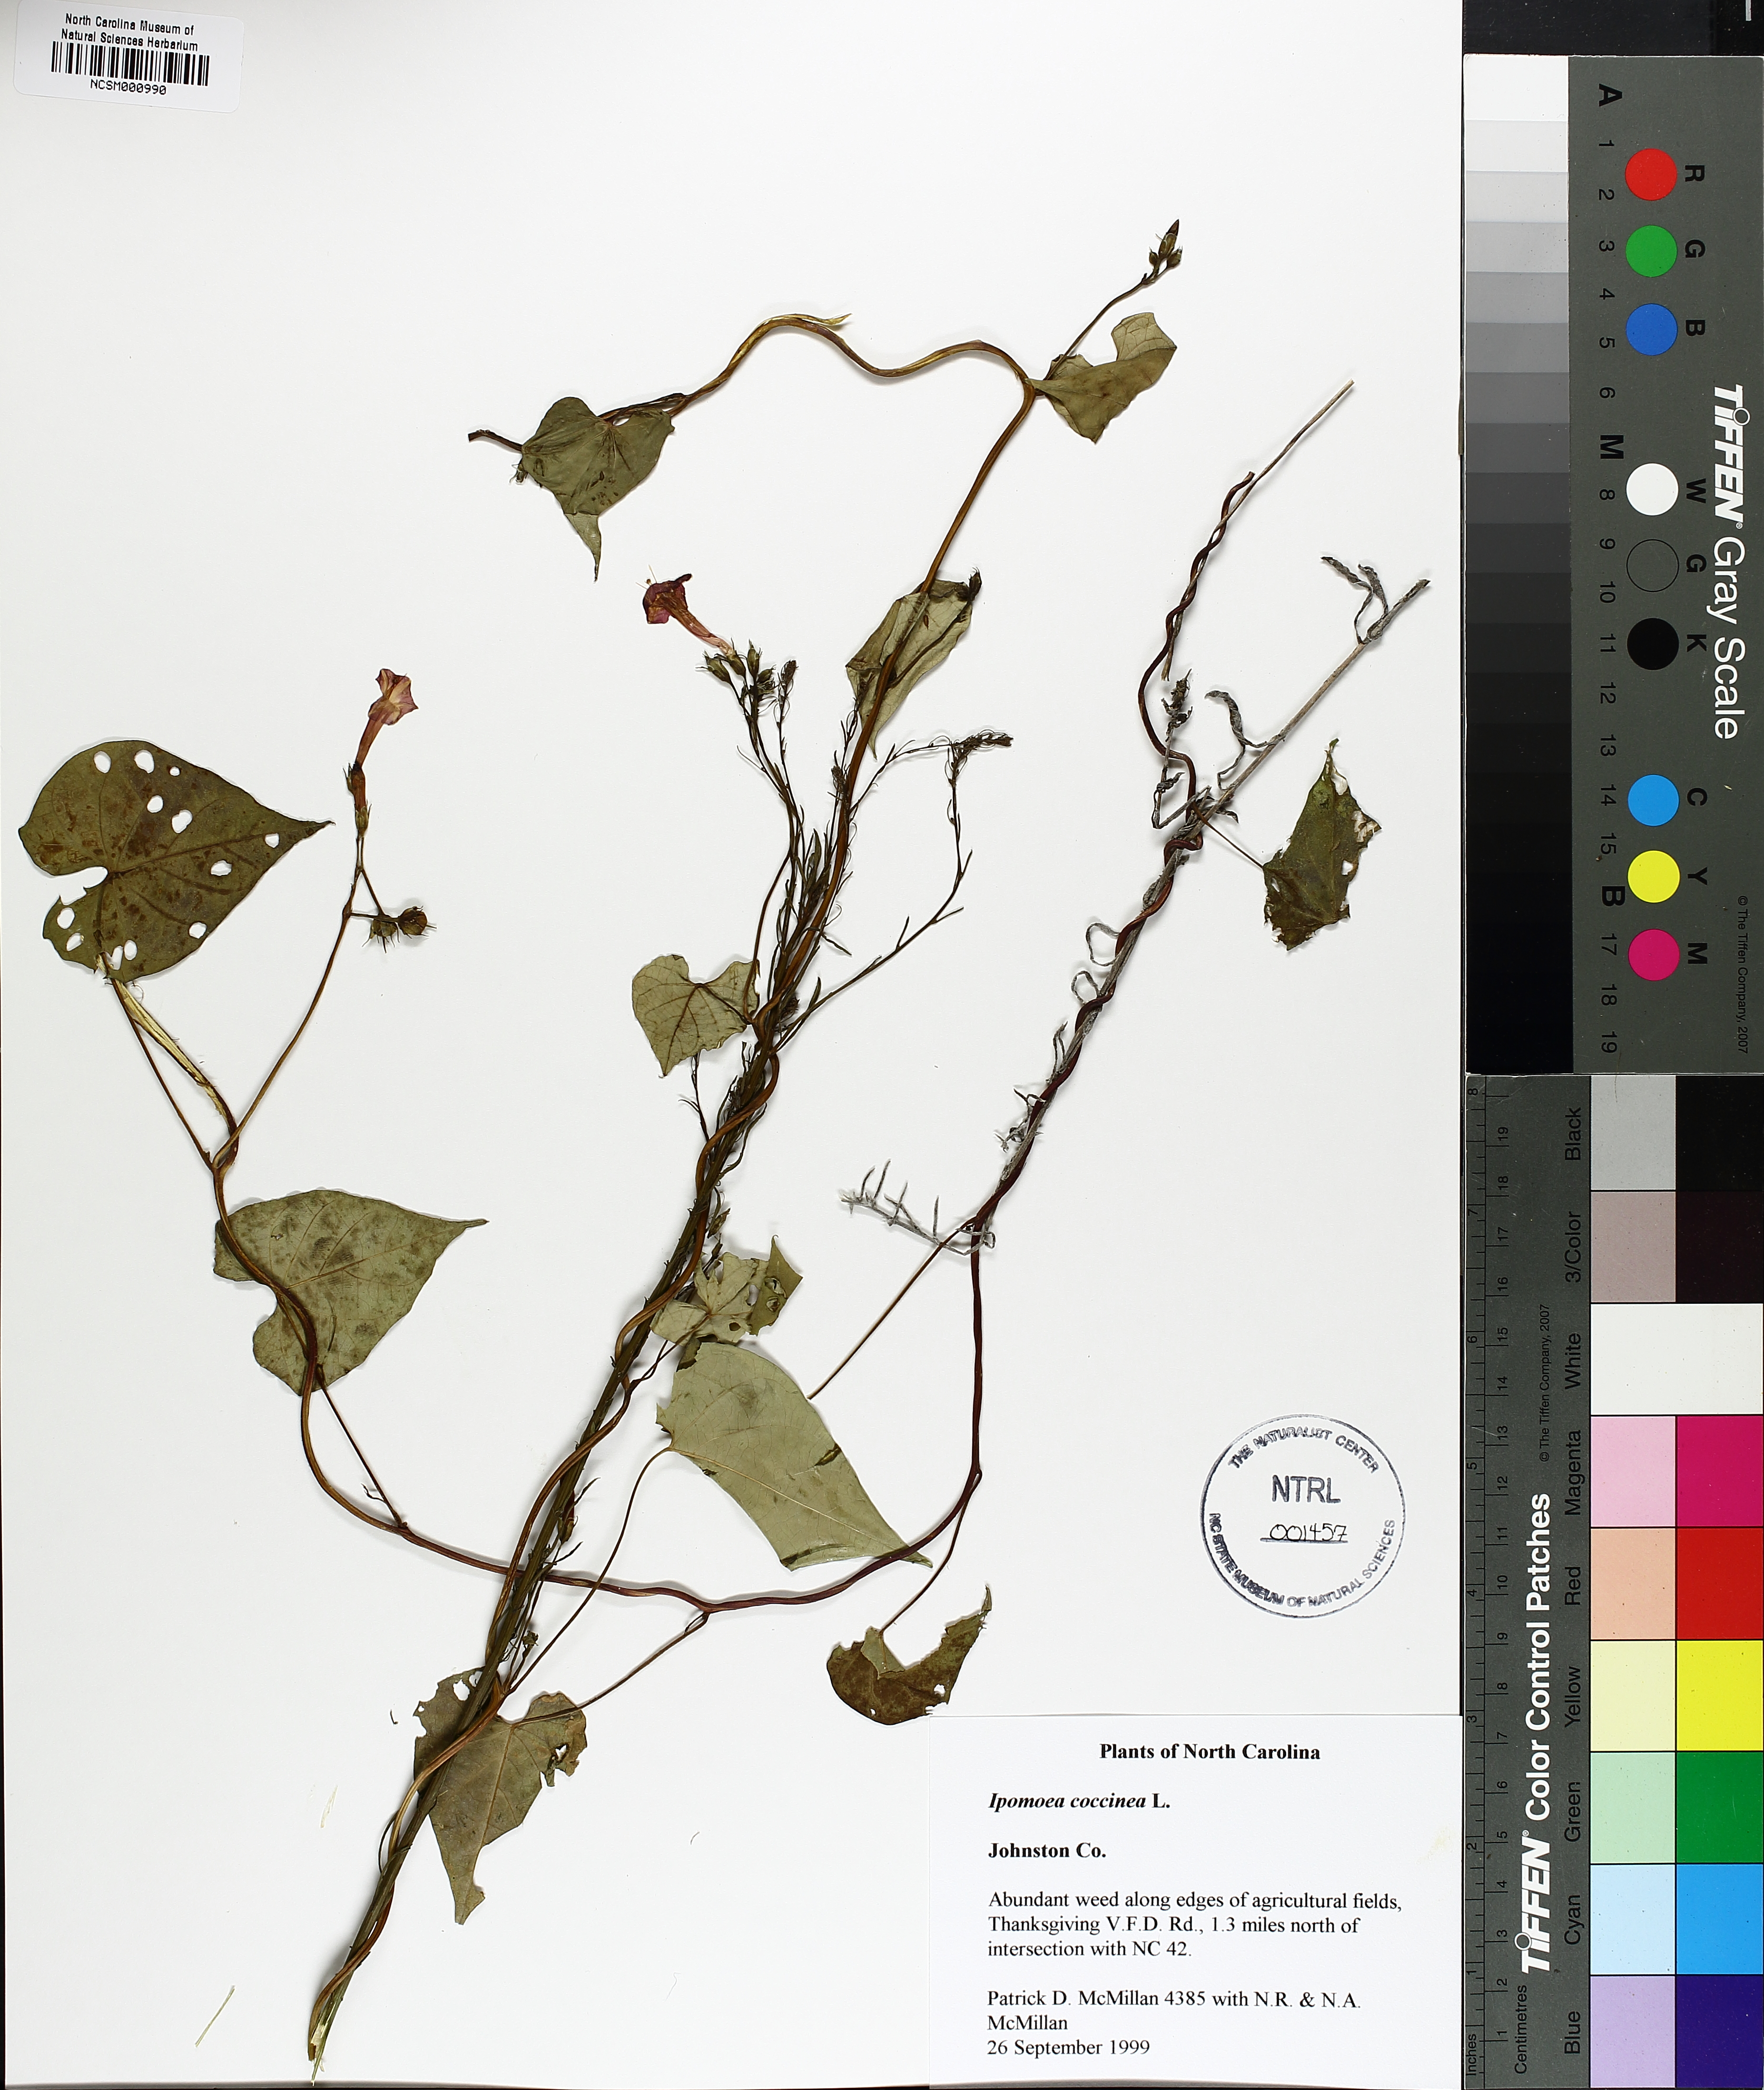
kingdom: Plantae
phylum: Tracheophyta
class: Magnoliopsida
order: Solanales
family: Convolvulaceae
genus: Ipomoea
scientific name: Ipomoea coccinea
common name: Red morning-glory
